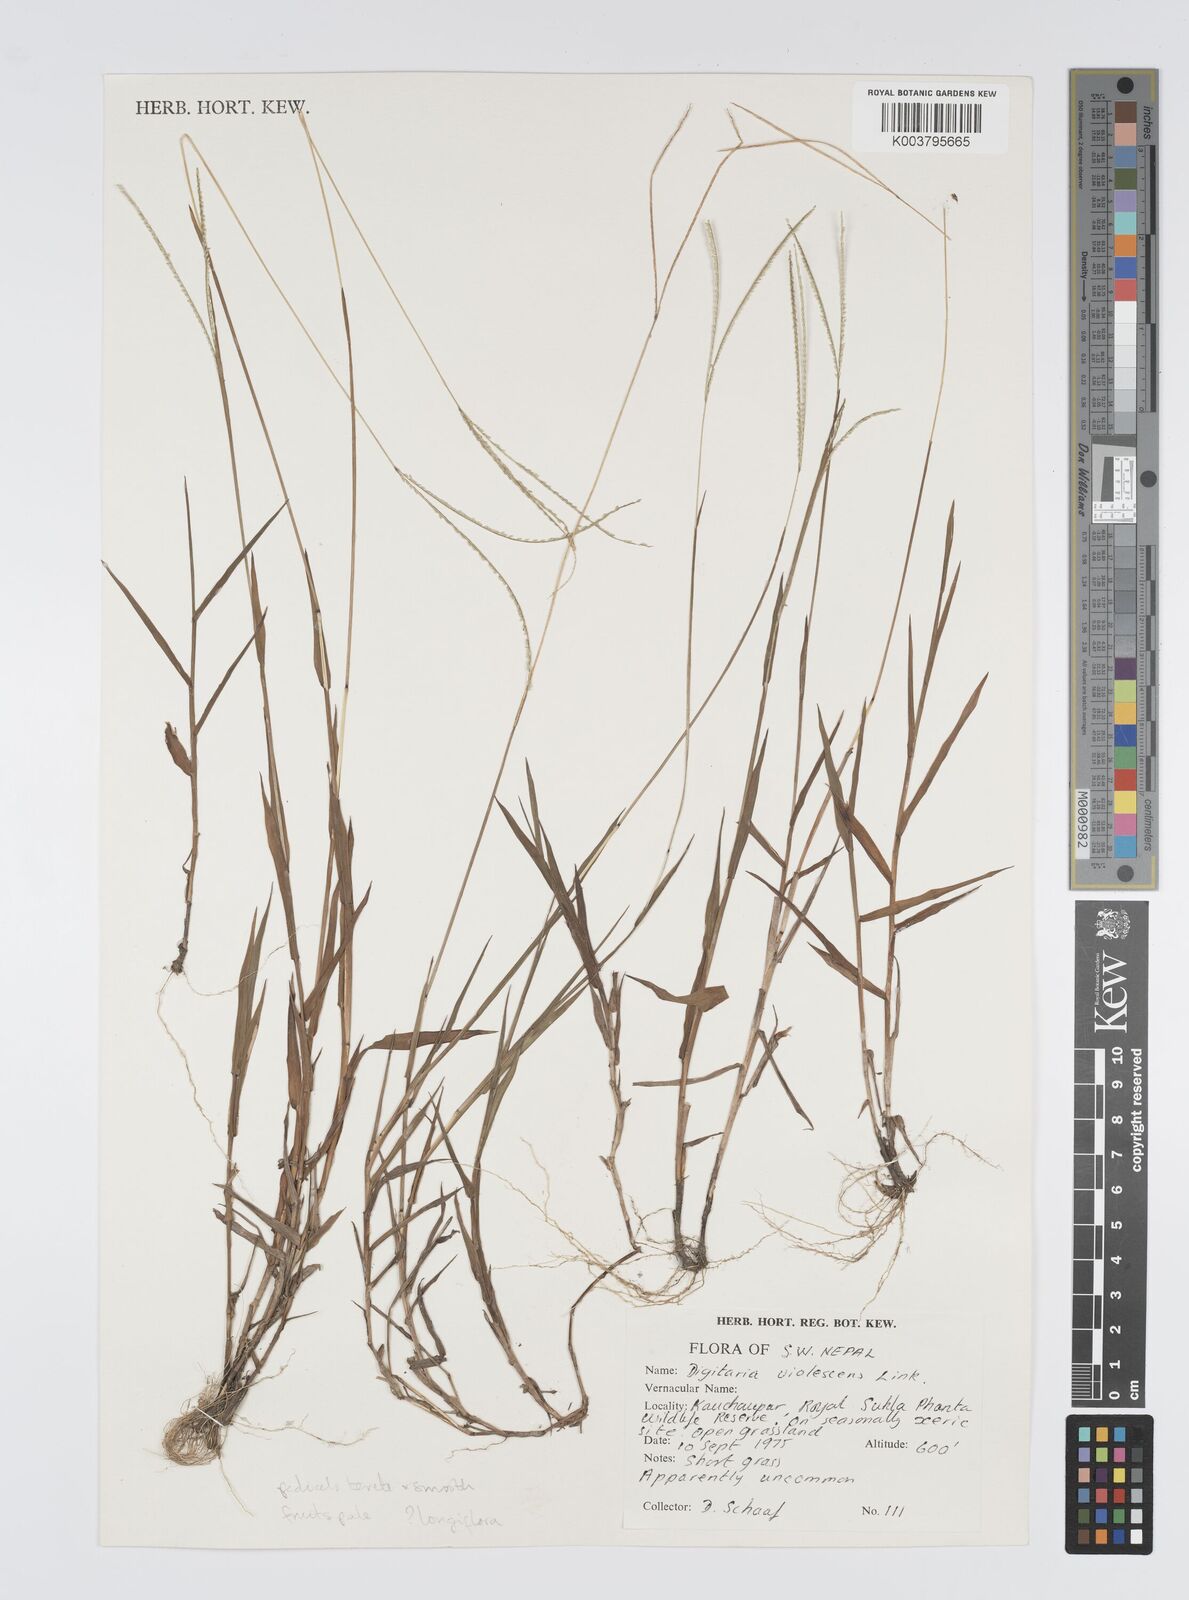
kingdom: Plantae
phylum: Tracheophyta
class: Liliopsida
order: Poales
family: Poaceae
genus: Digitaria
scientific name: Digitaria longiflora
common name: Wire crabgrass
